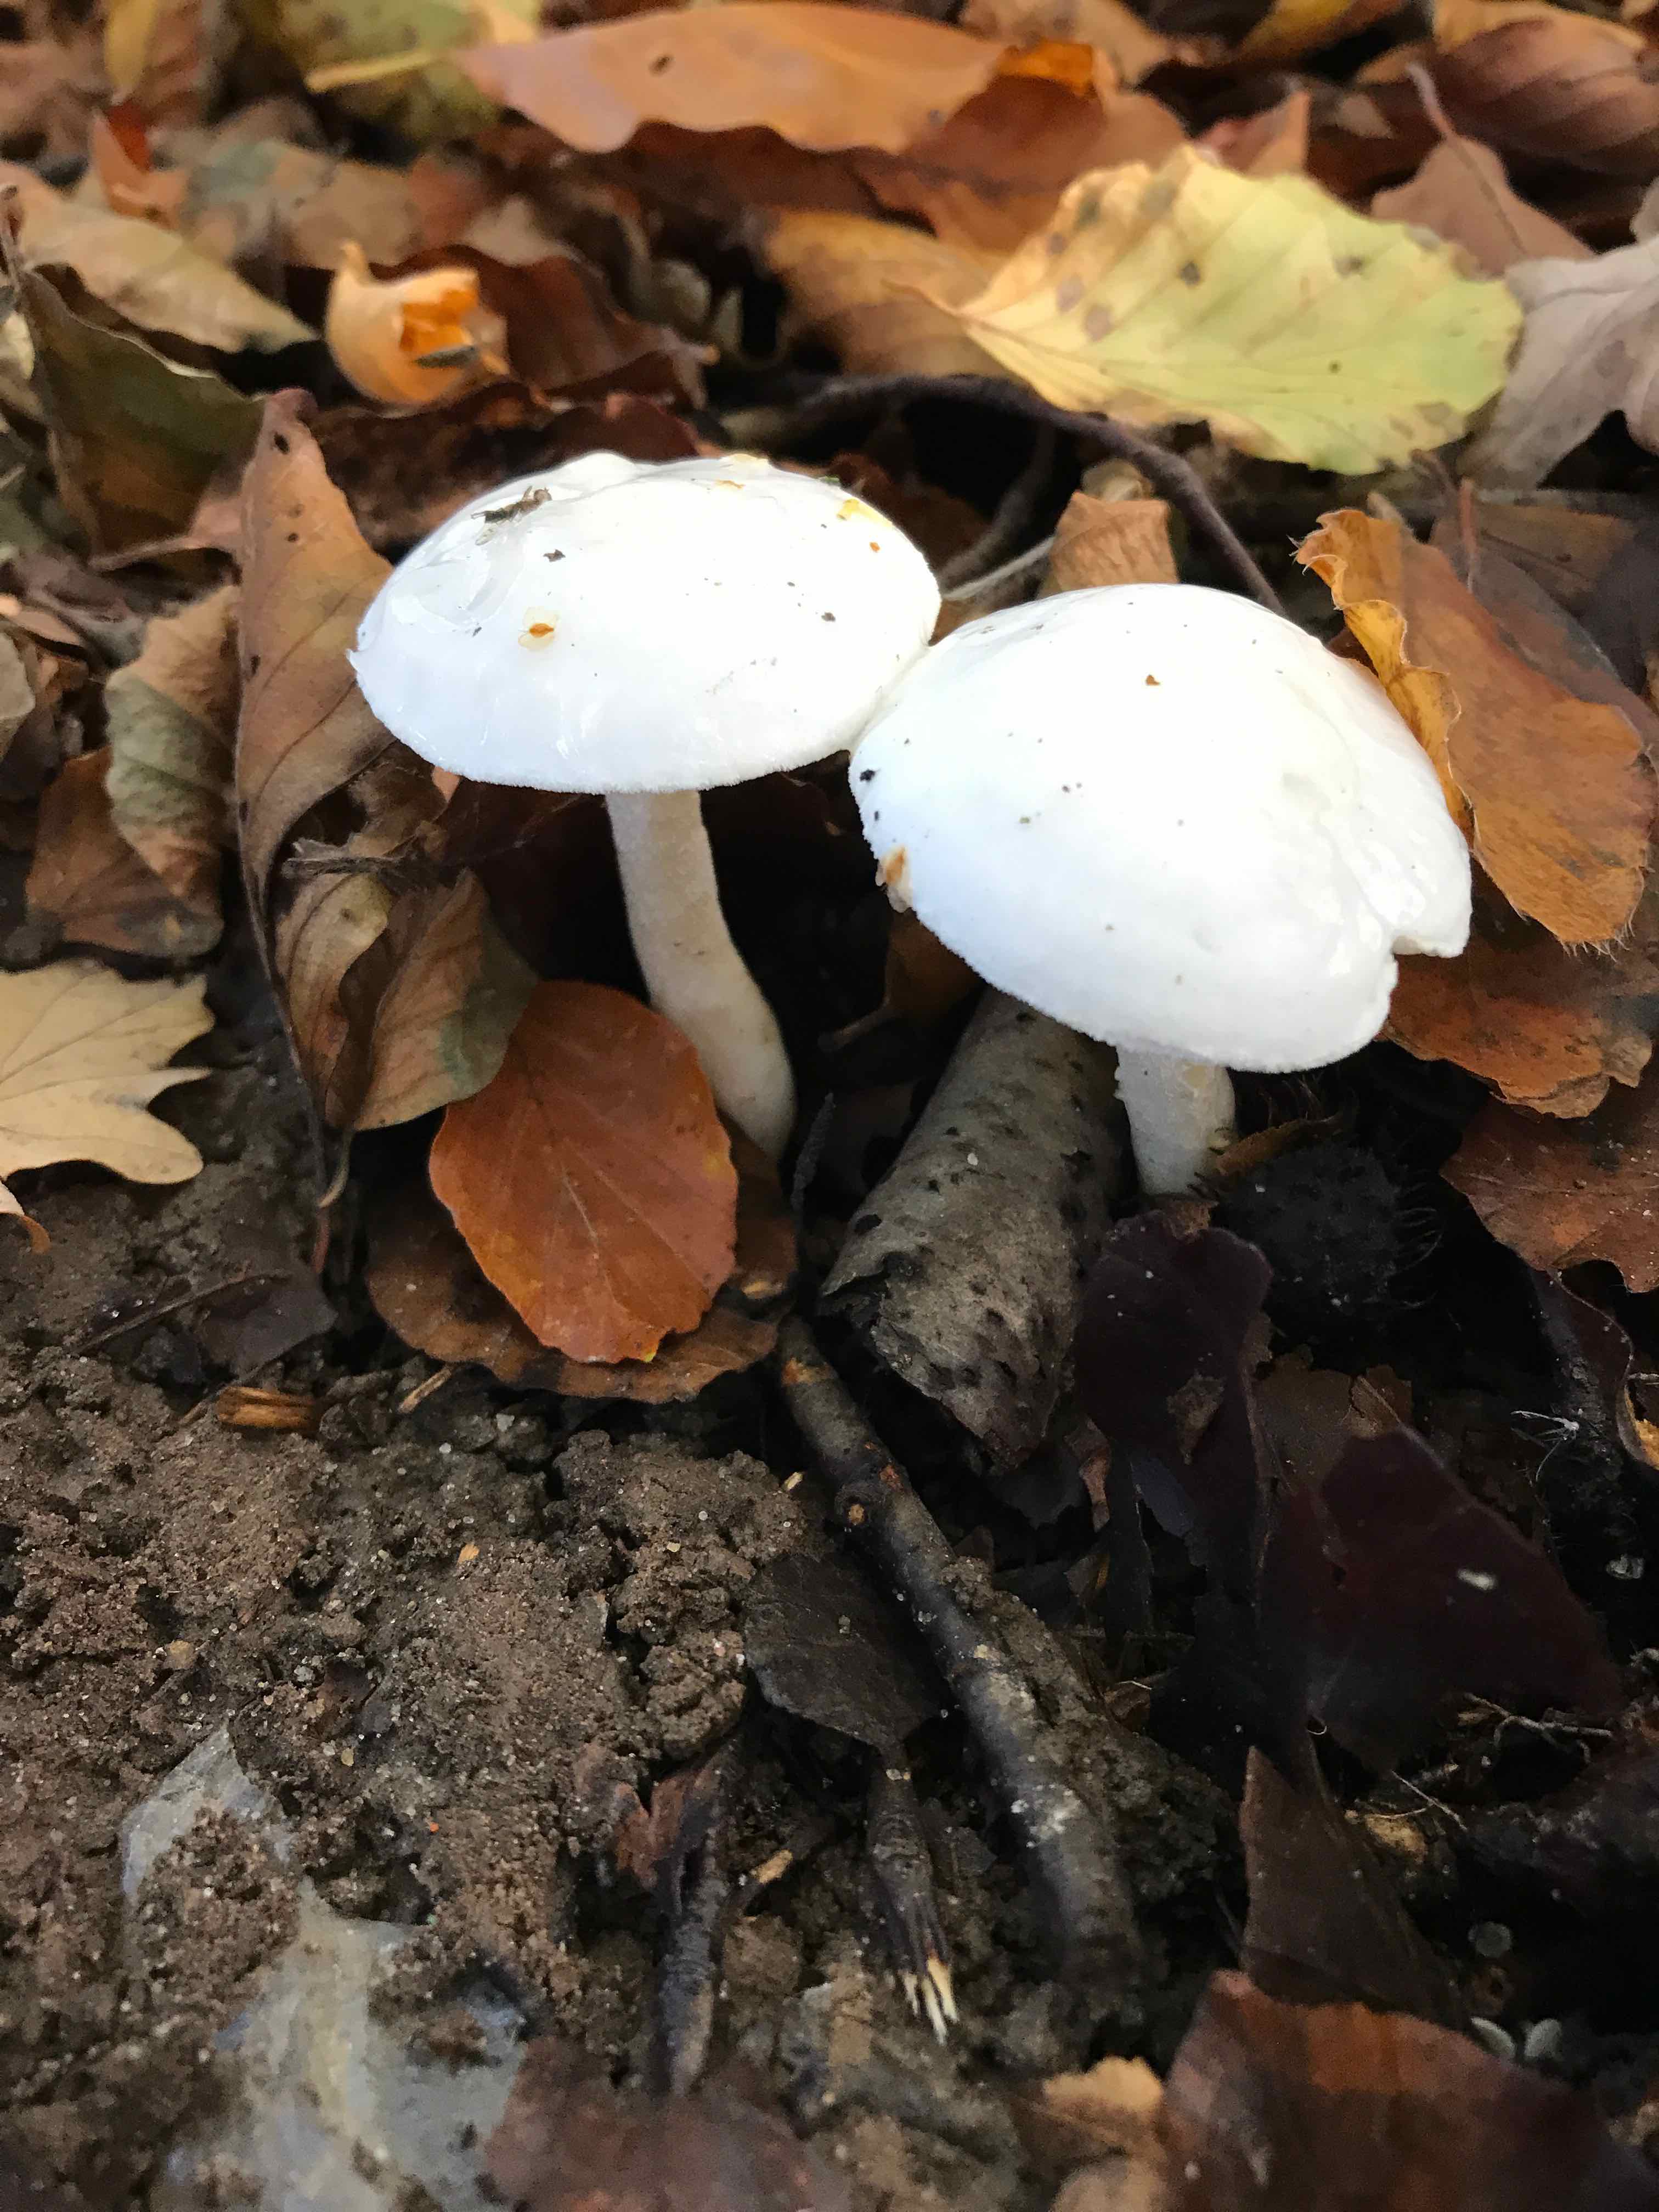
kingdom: Fungi
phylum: Basidiomycota
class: Agaricomycetes
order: Agaricales
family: Hygrophoraceae
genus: Hygrophorus
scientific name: Hygrophorus
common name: sneglehat
